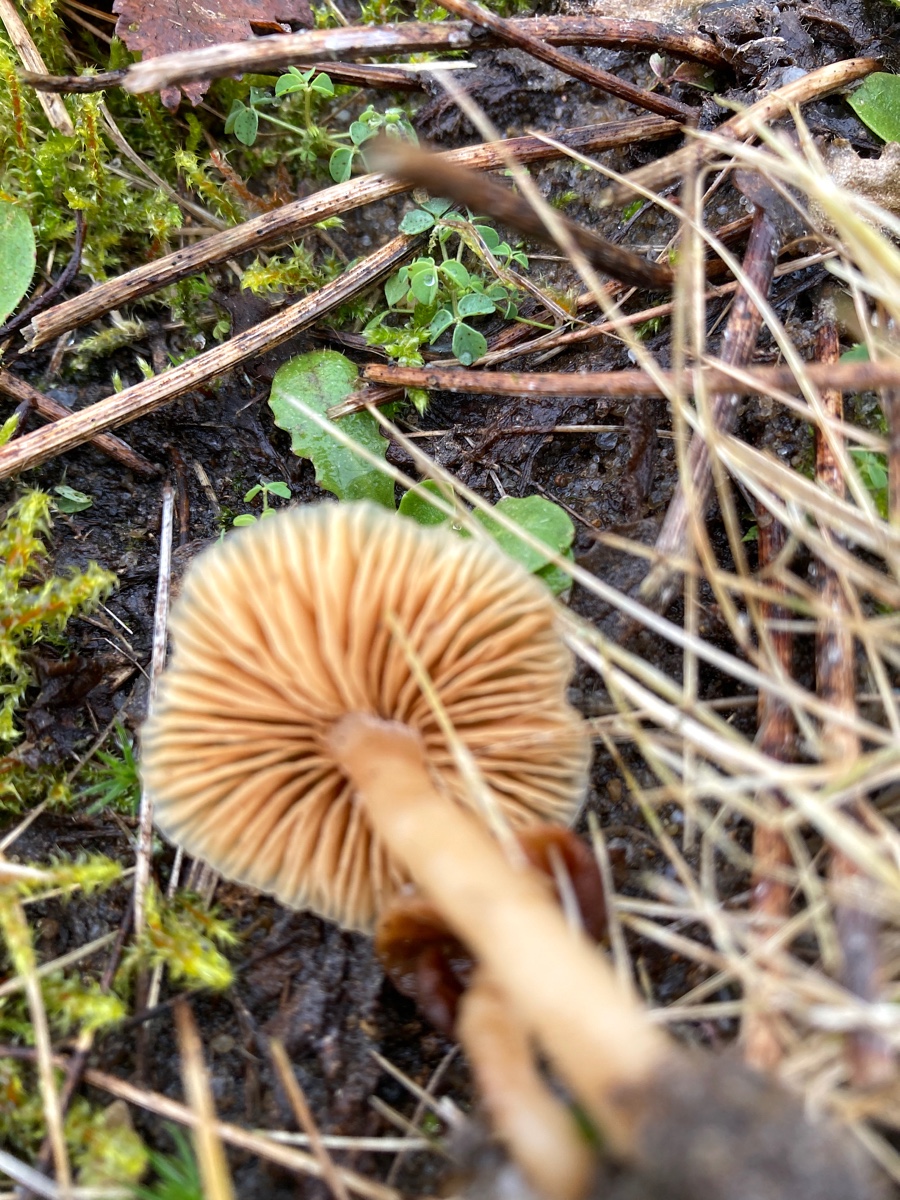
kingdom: Fungi
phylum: Basidiomycota
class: Agaricomycetes
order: Agaricales
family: Tubariaceae
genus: Tubaria
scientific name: Tubaria furfuracea
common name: kliddet fnughat
